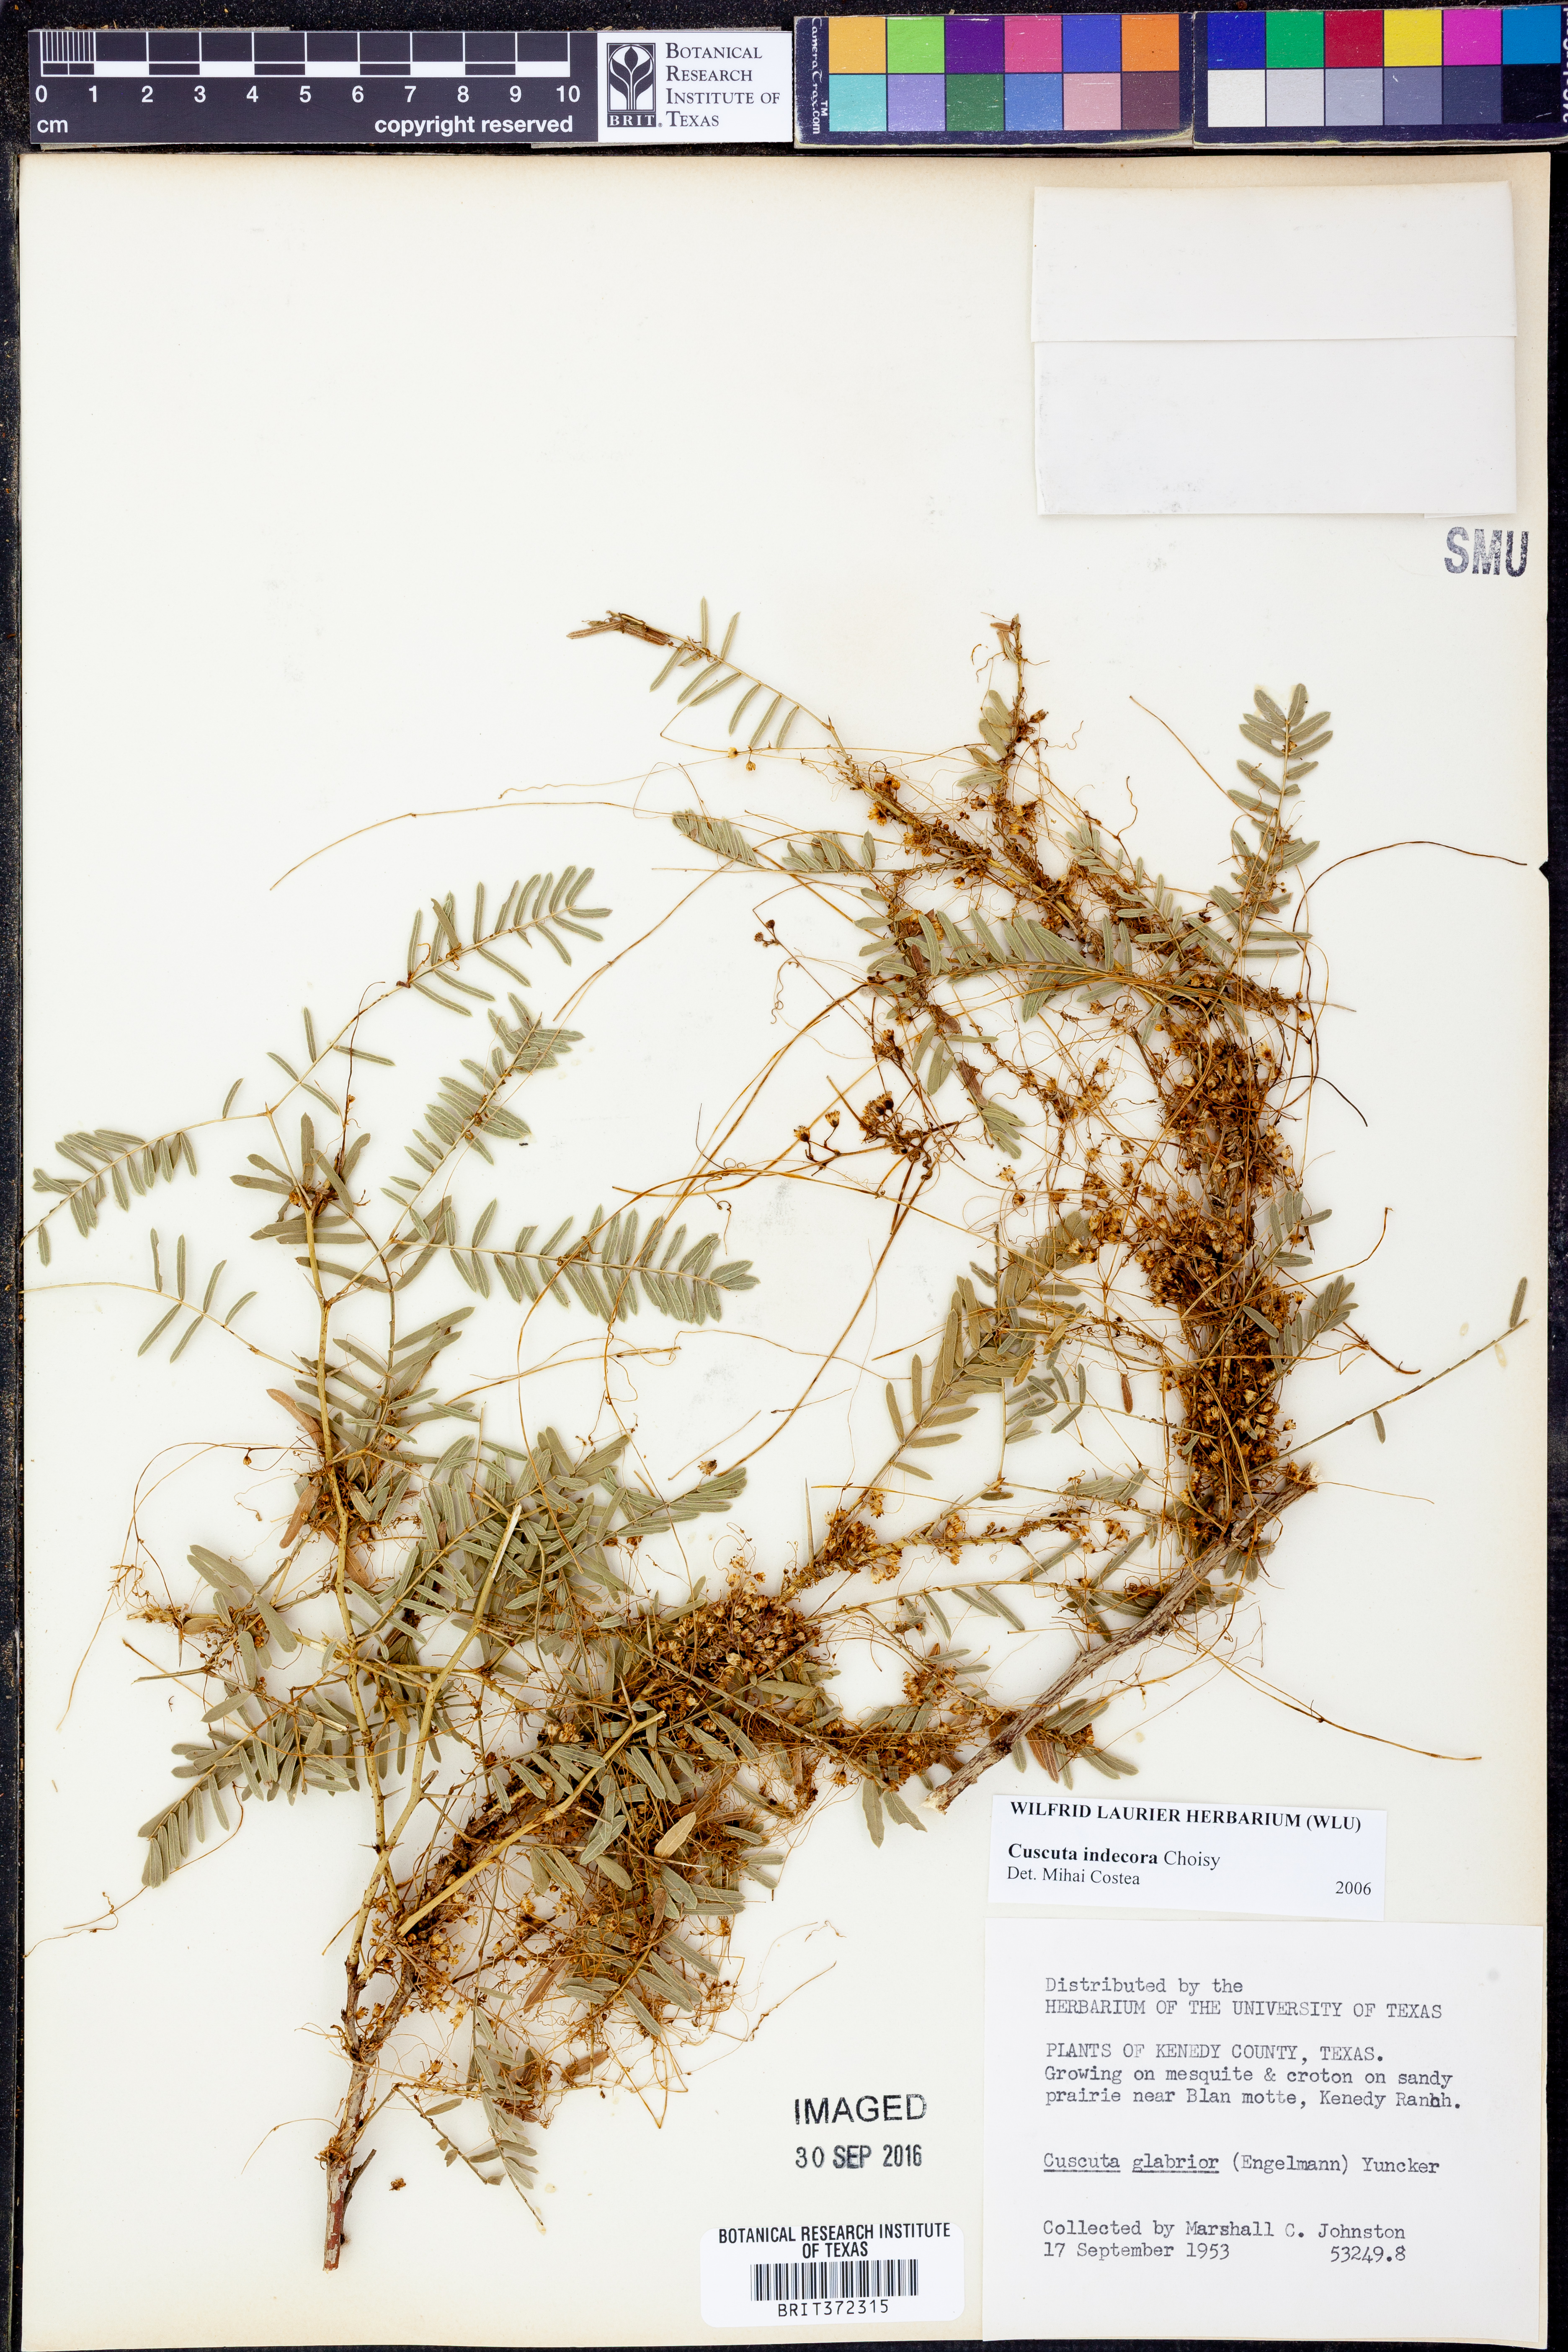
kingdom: Plantae
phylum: Tracheophyta
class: Magnoliopsida
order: Solanales
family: Convolvulaceae
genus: Cuscuta
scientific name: Cuscuta indecora
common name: Large-seed dodder
